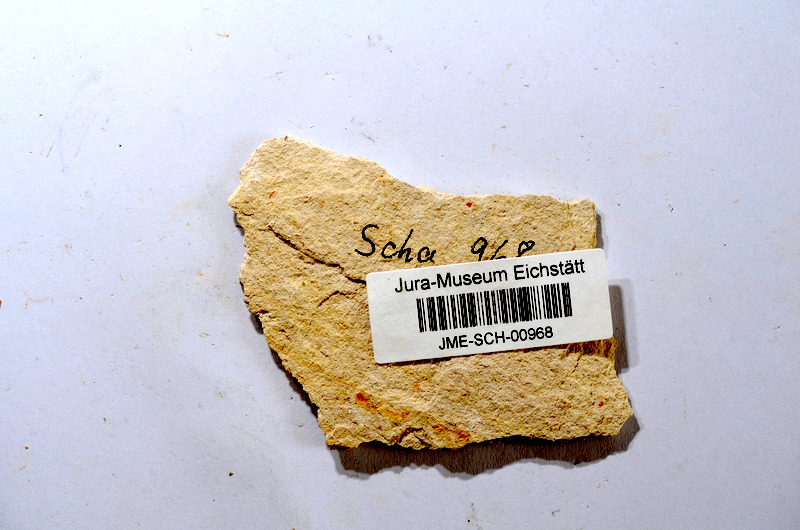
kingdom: Animalia
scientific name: Animalia
